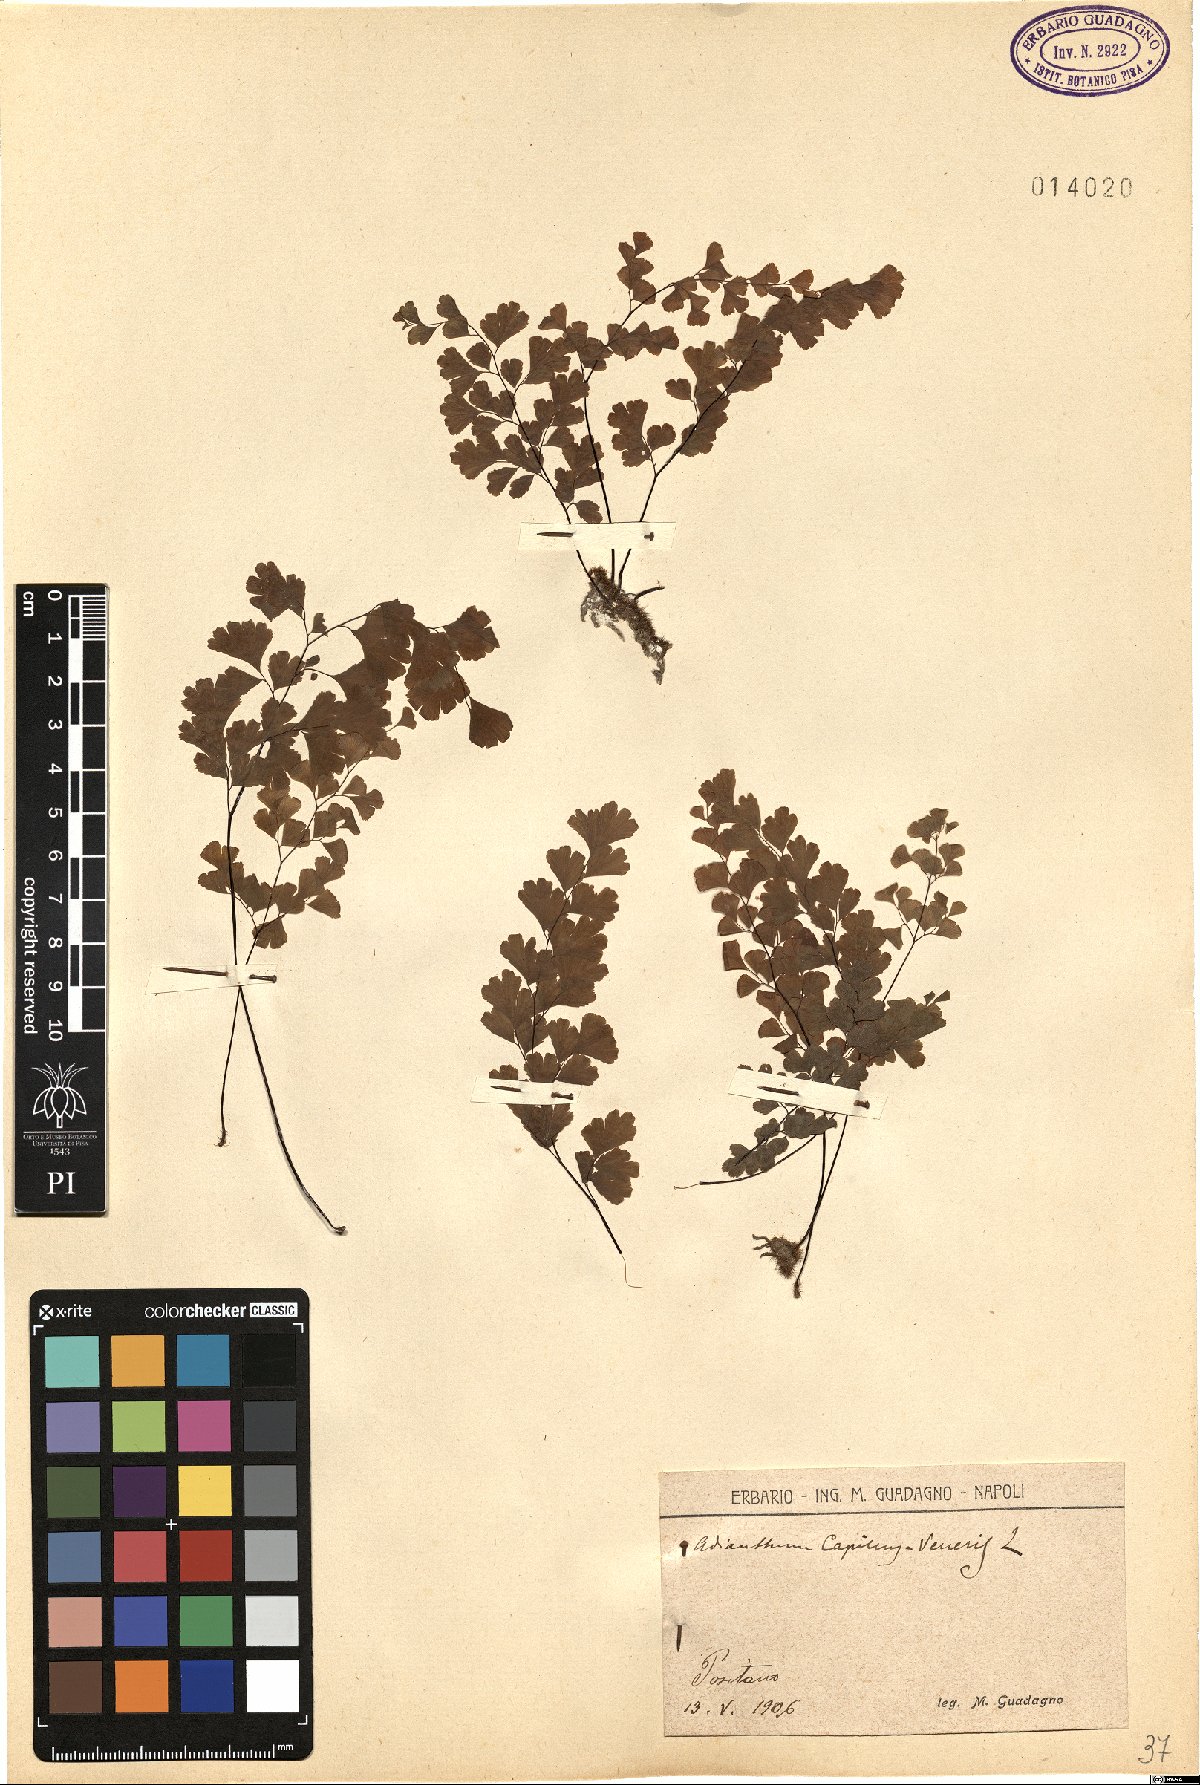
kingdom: Plantae
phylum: Tracheophyta
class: Polypodiopsida
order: Polypodiales
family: Pteridaceae
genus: Adiantum
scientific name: Adiantum capillus-veneris
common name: Maidenhair fern
